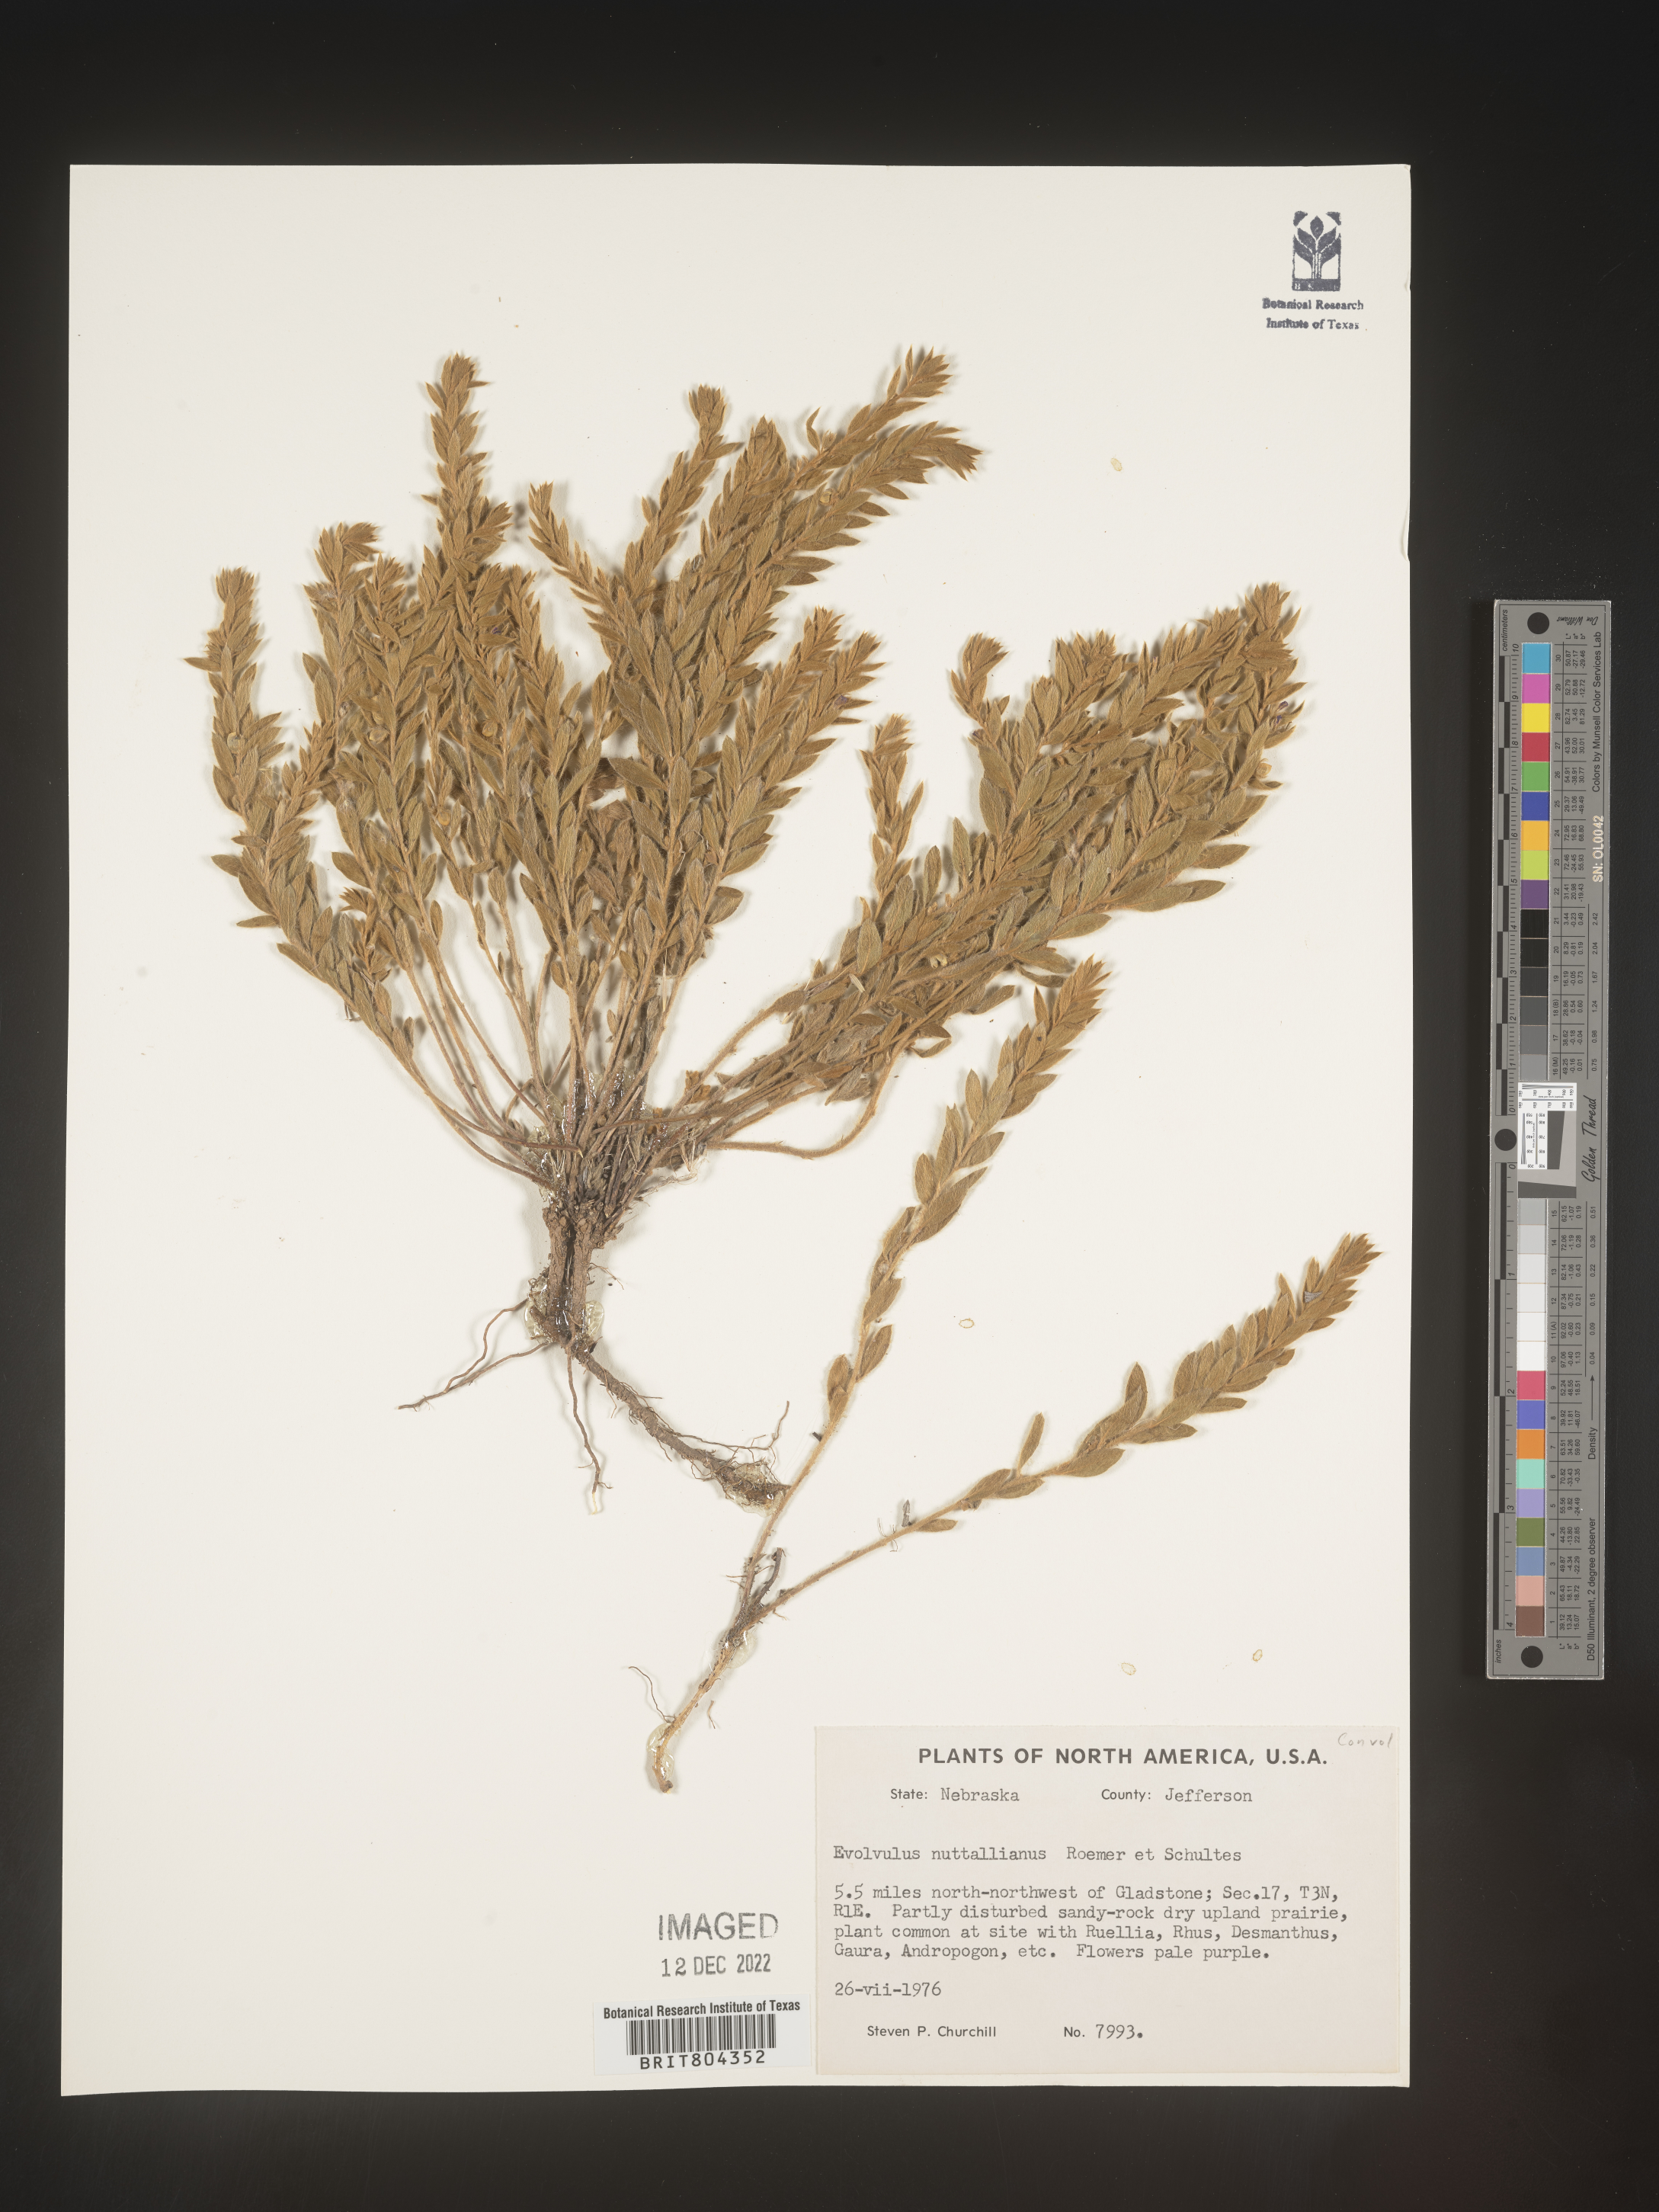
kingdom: Plantae
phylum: Tracheophyta
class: Magnoliopsida
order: Solanales
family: Convolvulaceae
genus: Evolvulus
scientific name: Evolvulus nuttallianus
